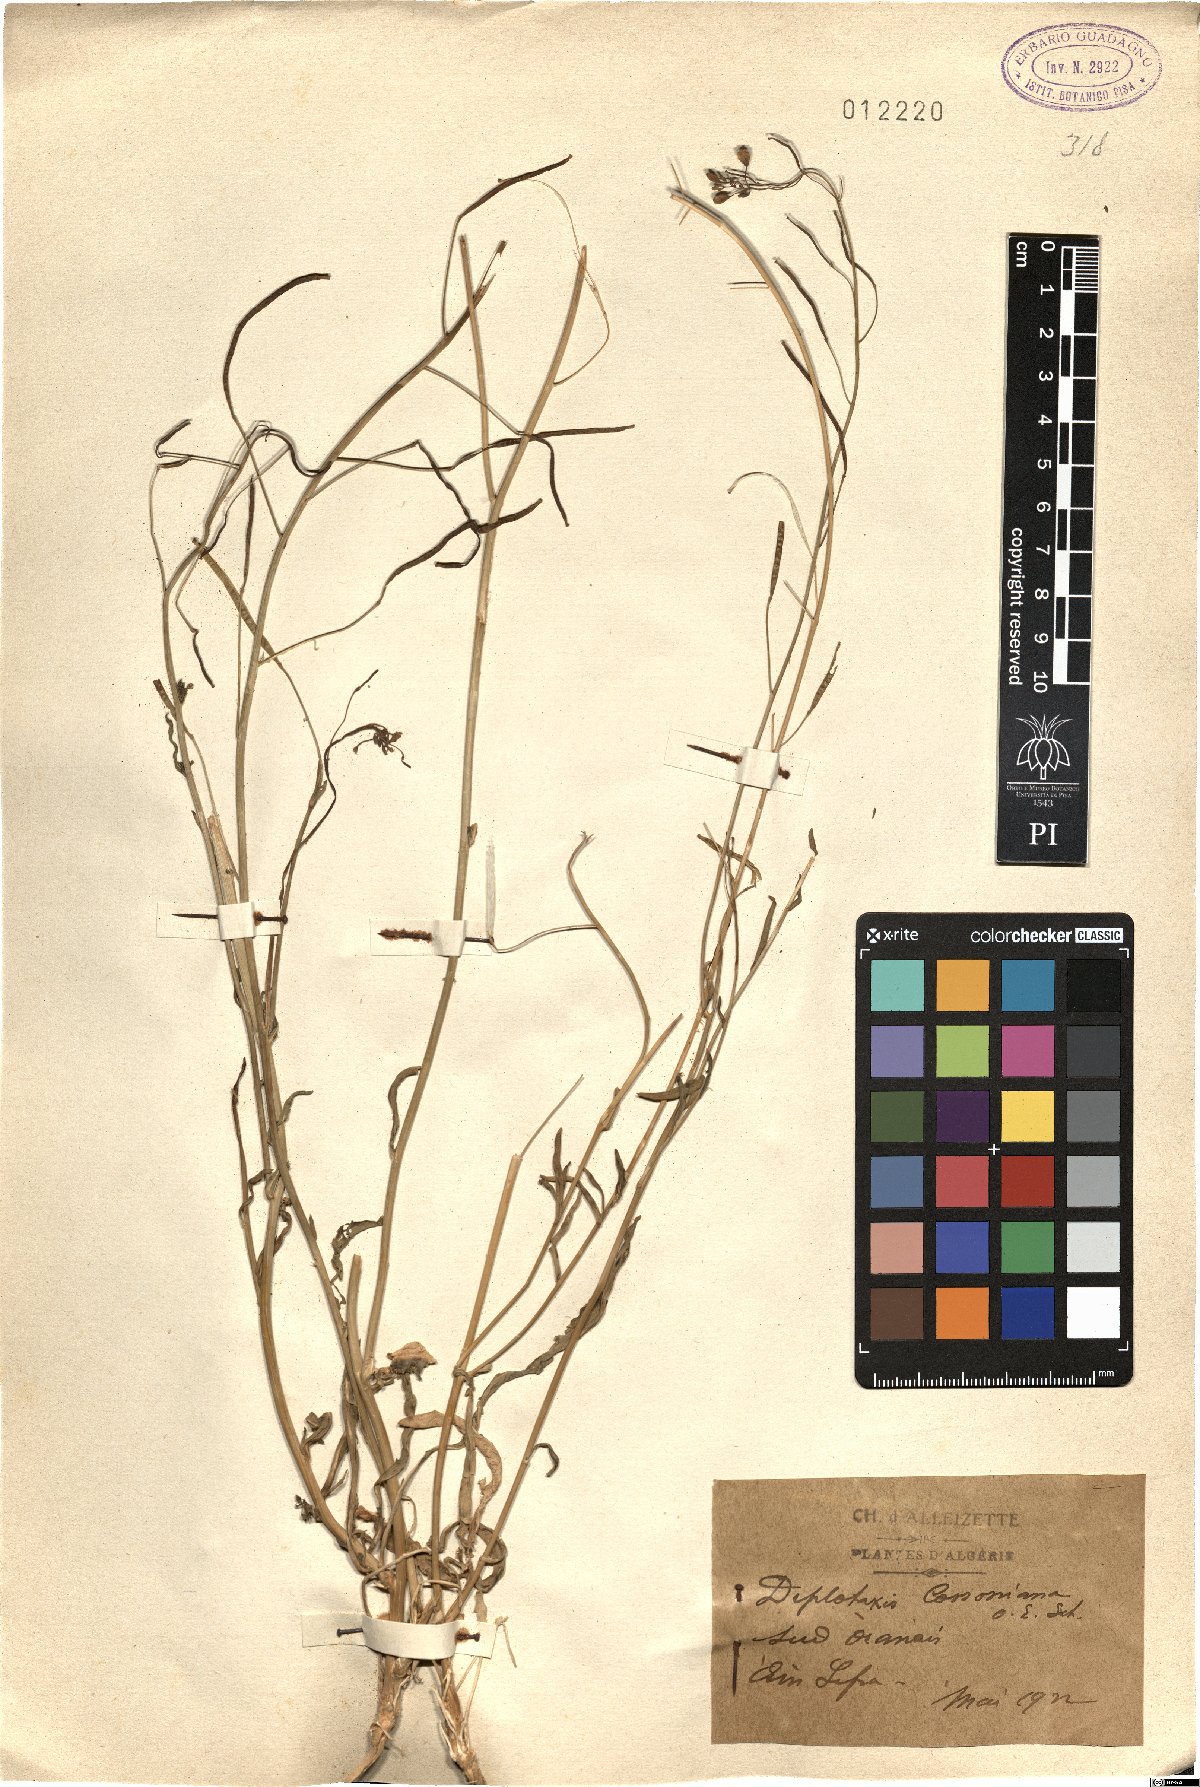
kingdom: Plantae
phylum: Tracheophyta
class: Magnoliopsida
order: Brassicales
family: Brassicaceae
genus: Diplotaxis
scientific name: Diplotaxis erucoides
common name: White rocket
